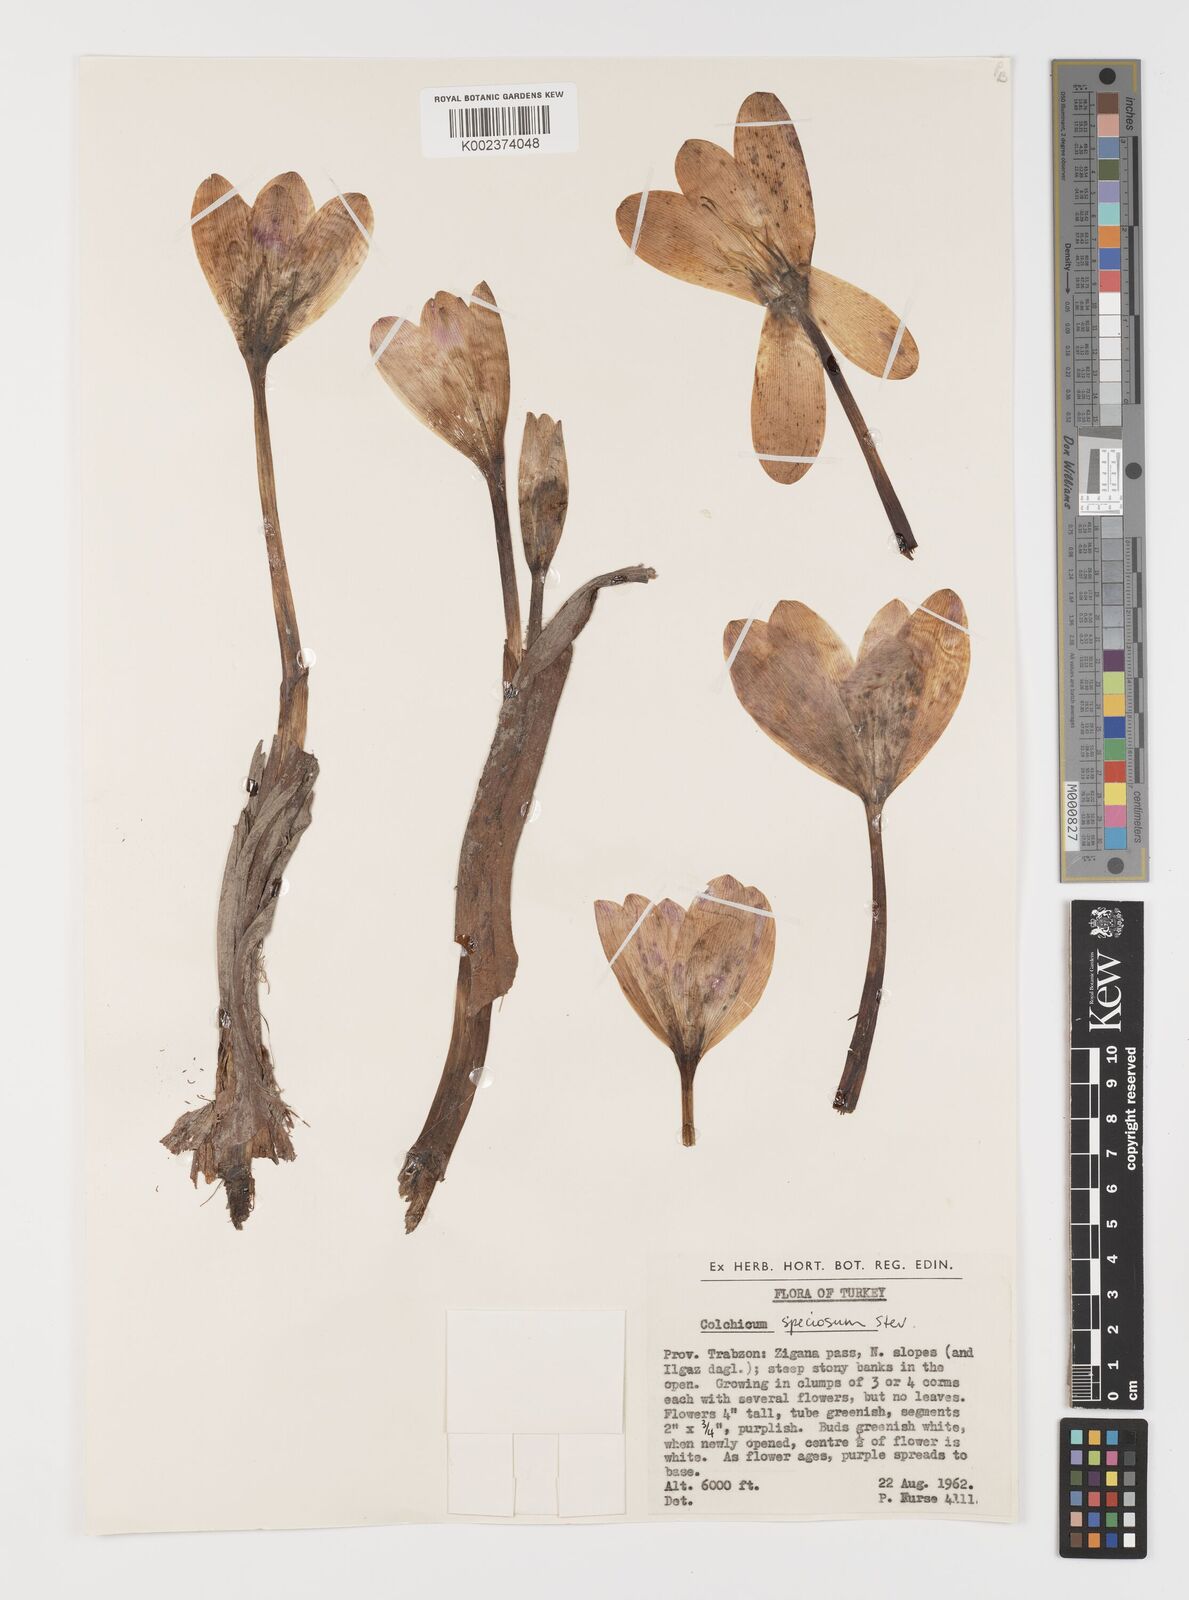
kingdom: Plantae
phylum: Tracheophyta
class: Liliopsida
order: Liliales
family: Colchicaceae
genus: Colchicum
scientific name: Colchicum speciosum
